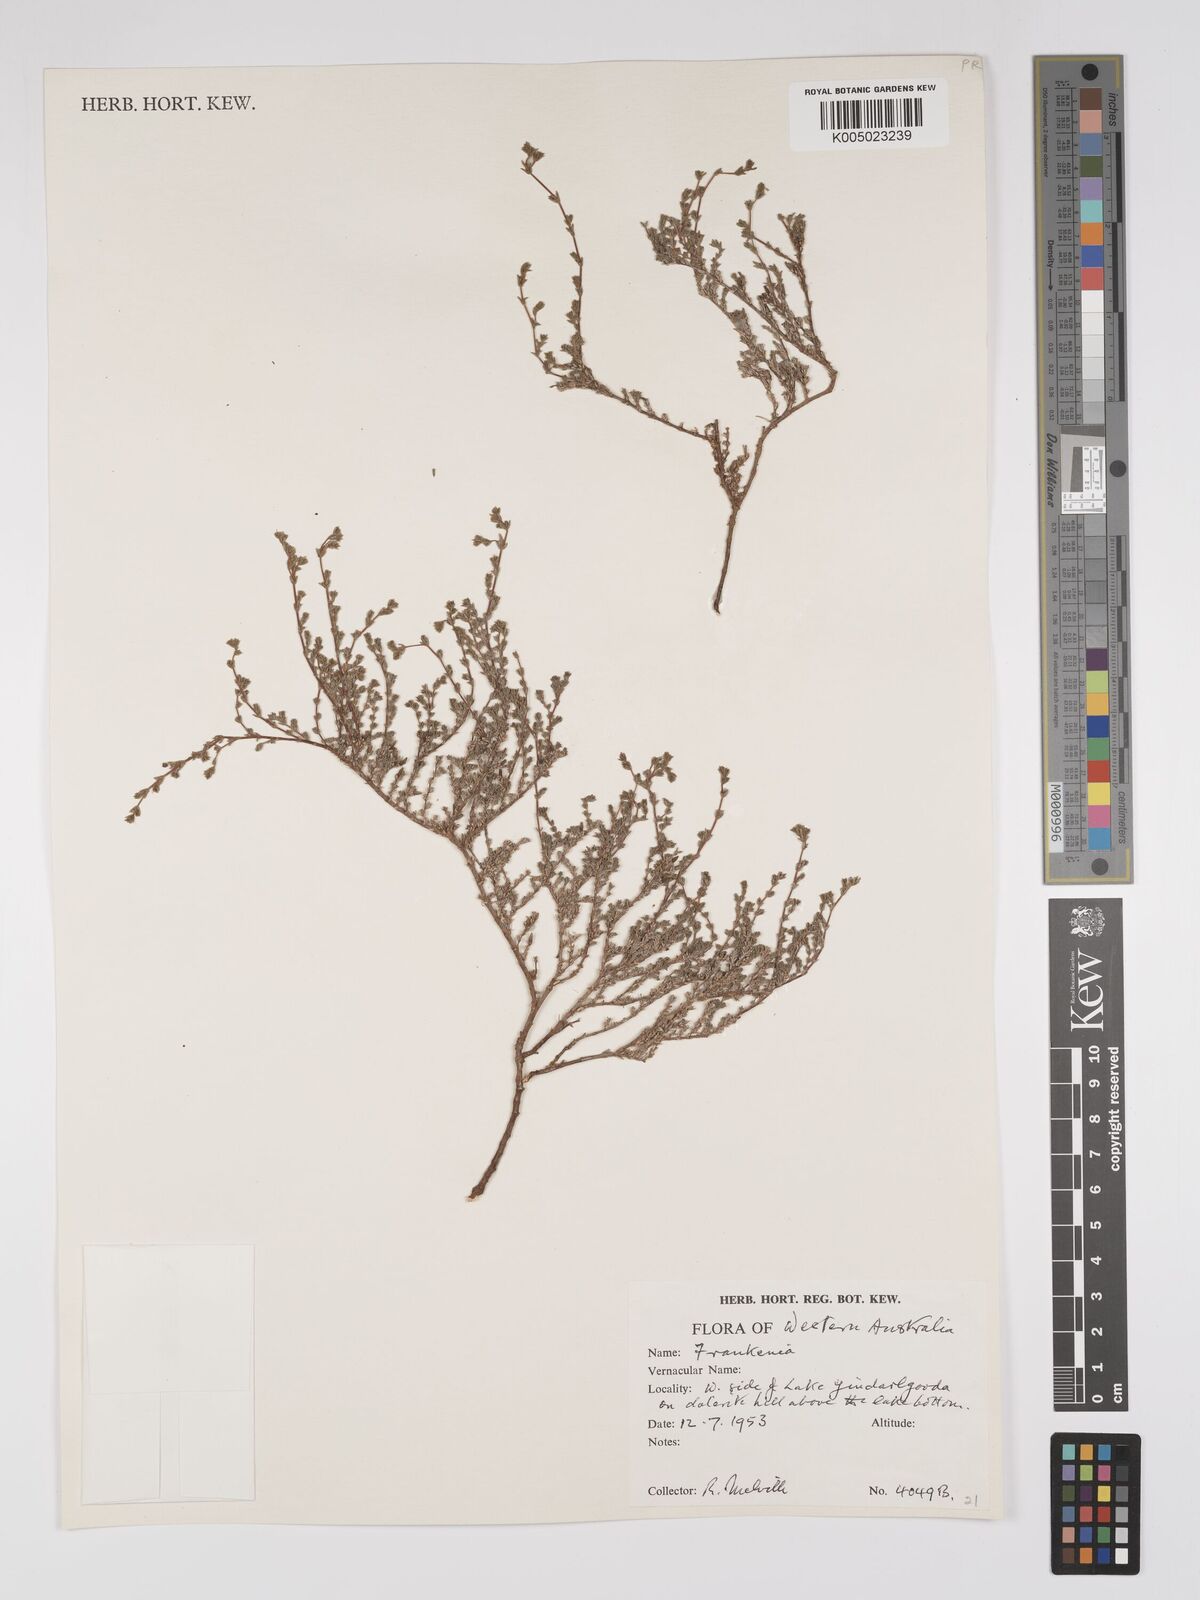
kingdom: Plantae
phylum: Tracheophyta
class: Magnoliopsida
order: Caryophyllales
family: Frankeniaceae
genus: Frankenia
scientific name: Frankenia
